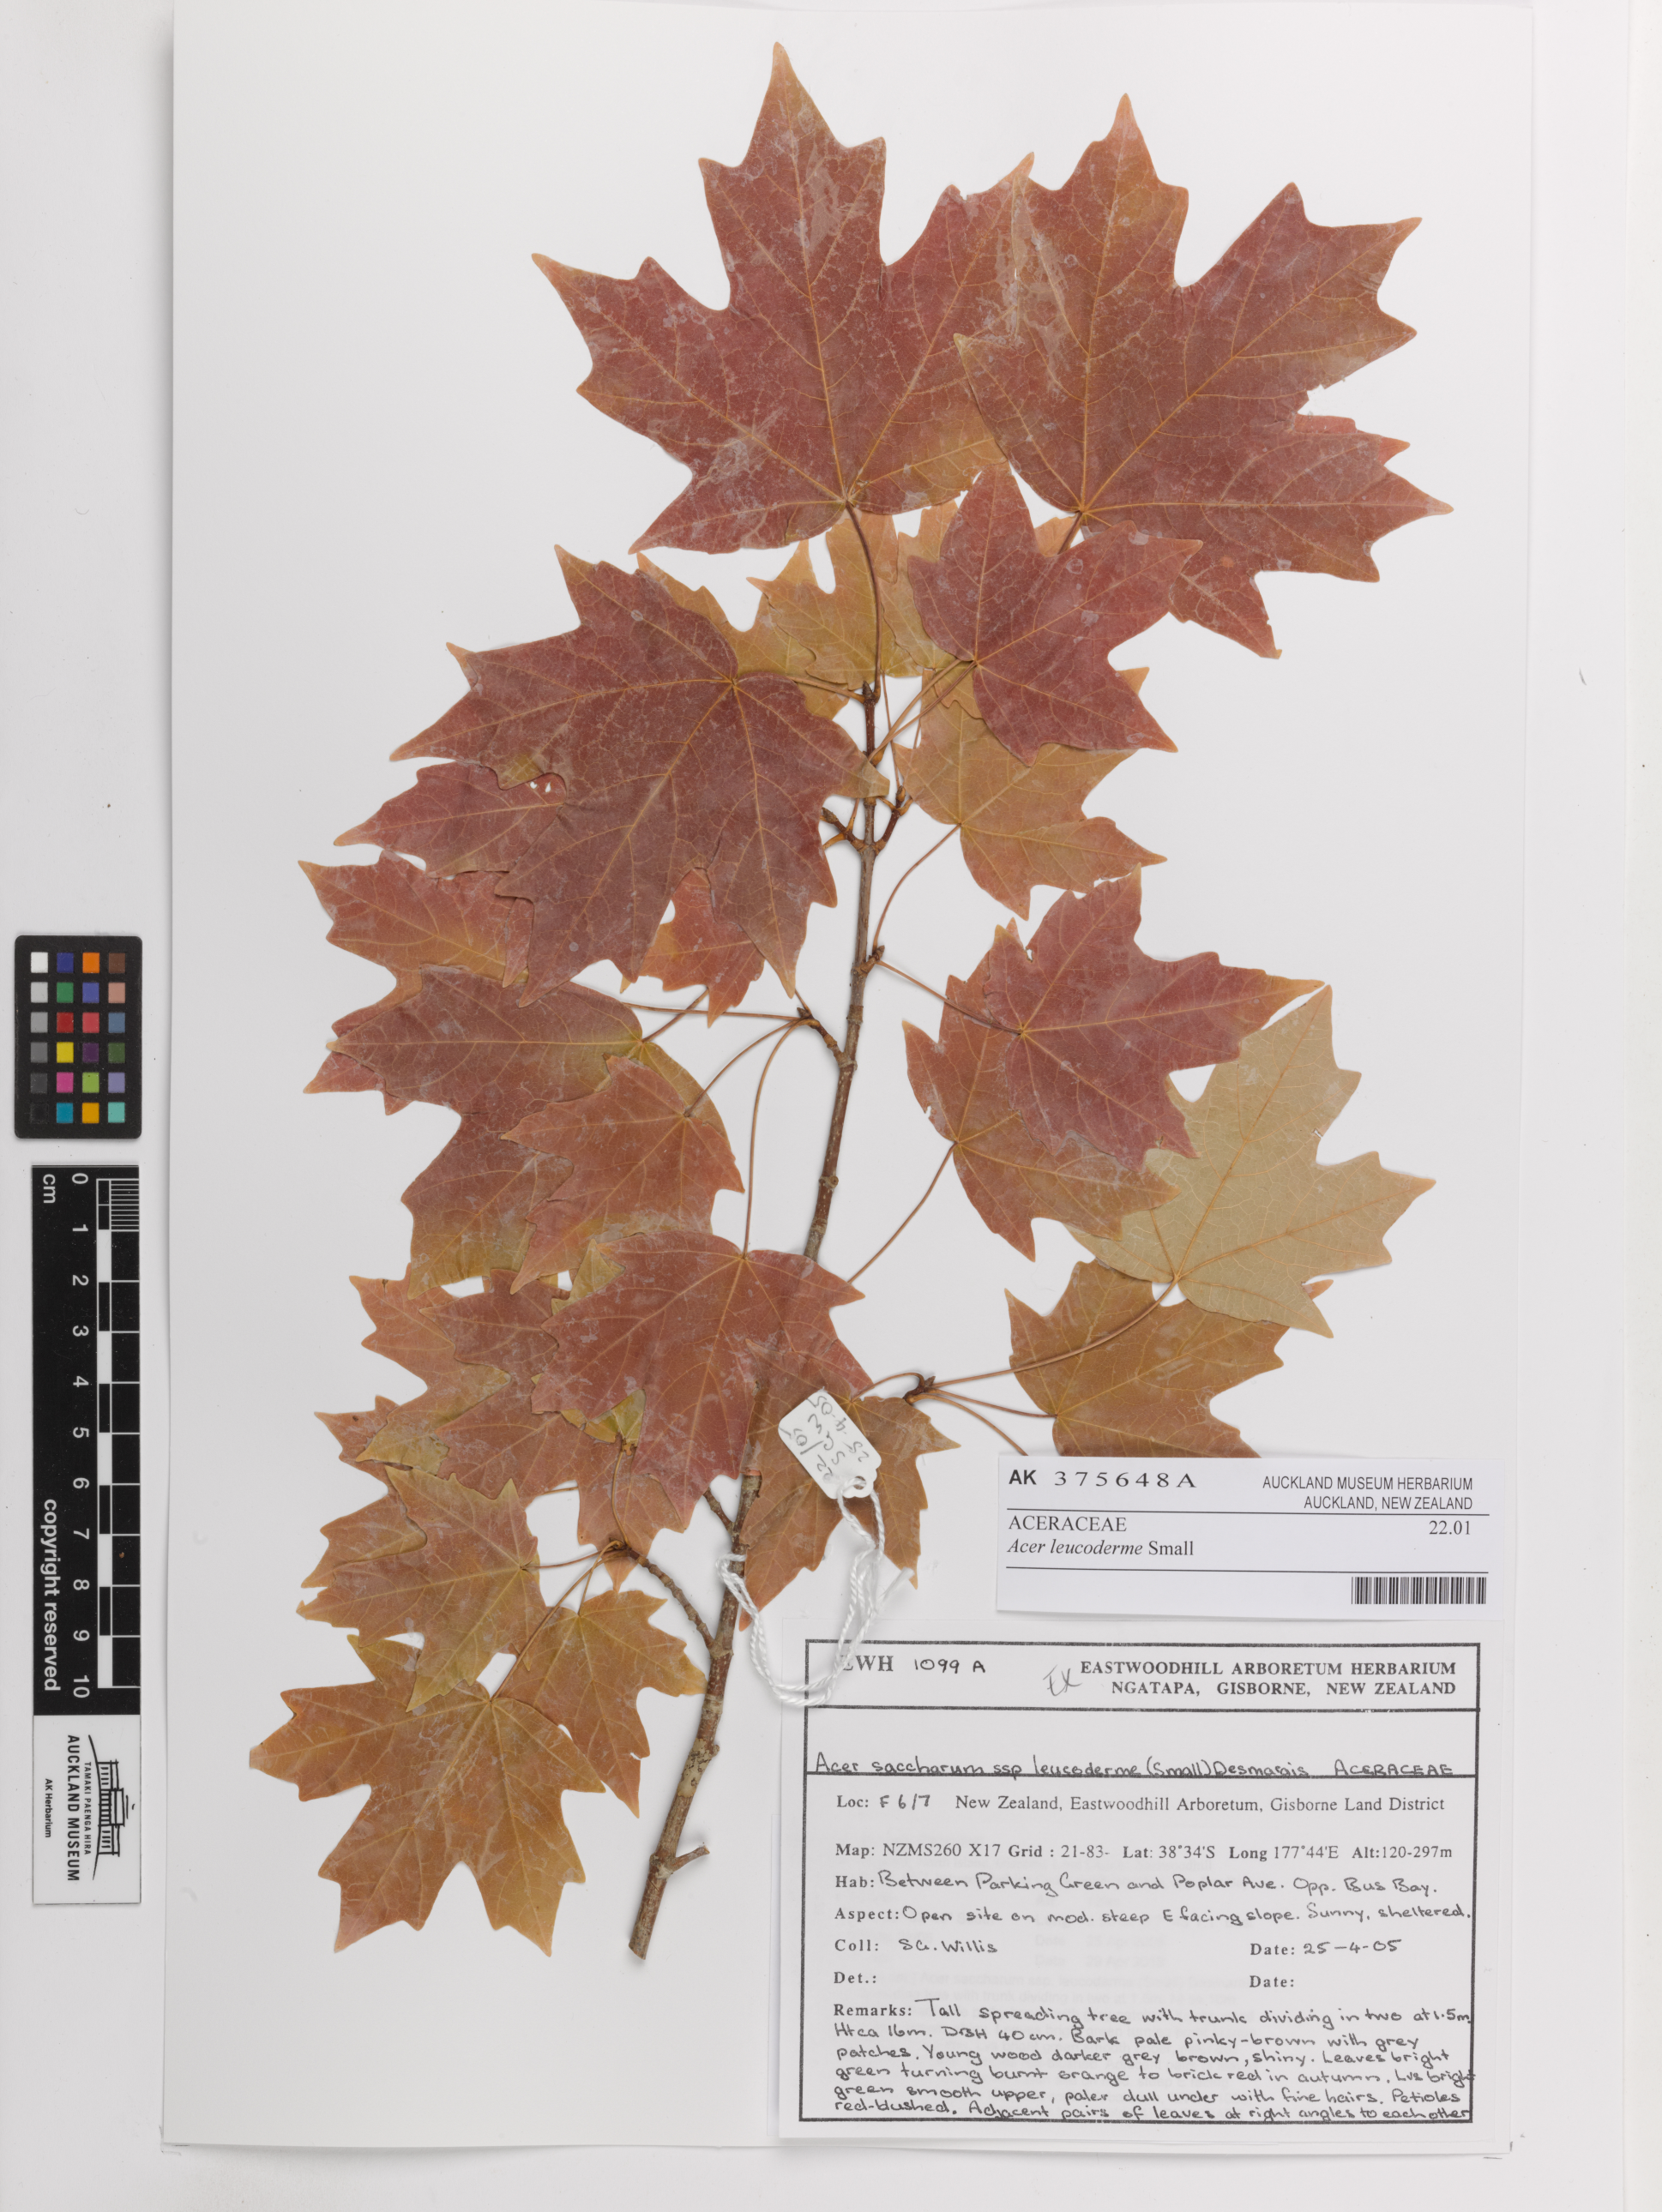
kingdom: Plantae
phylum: Tracheophyta
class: Magnoliopsida
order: Sapindales
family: Sapindaceae
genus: Acer
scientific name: Acer leucoderme
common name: Chalk maple
